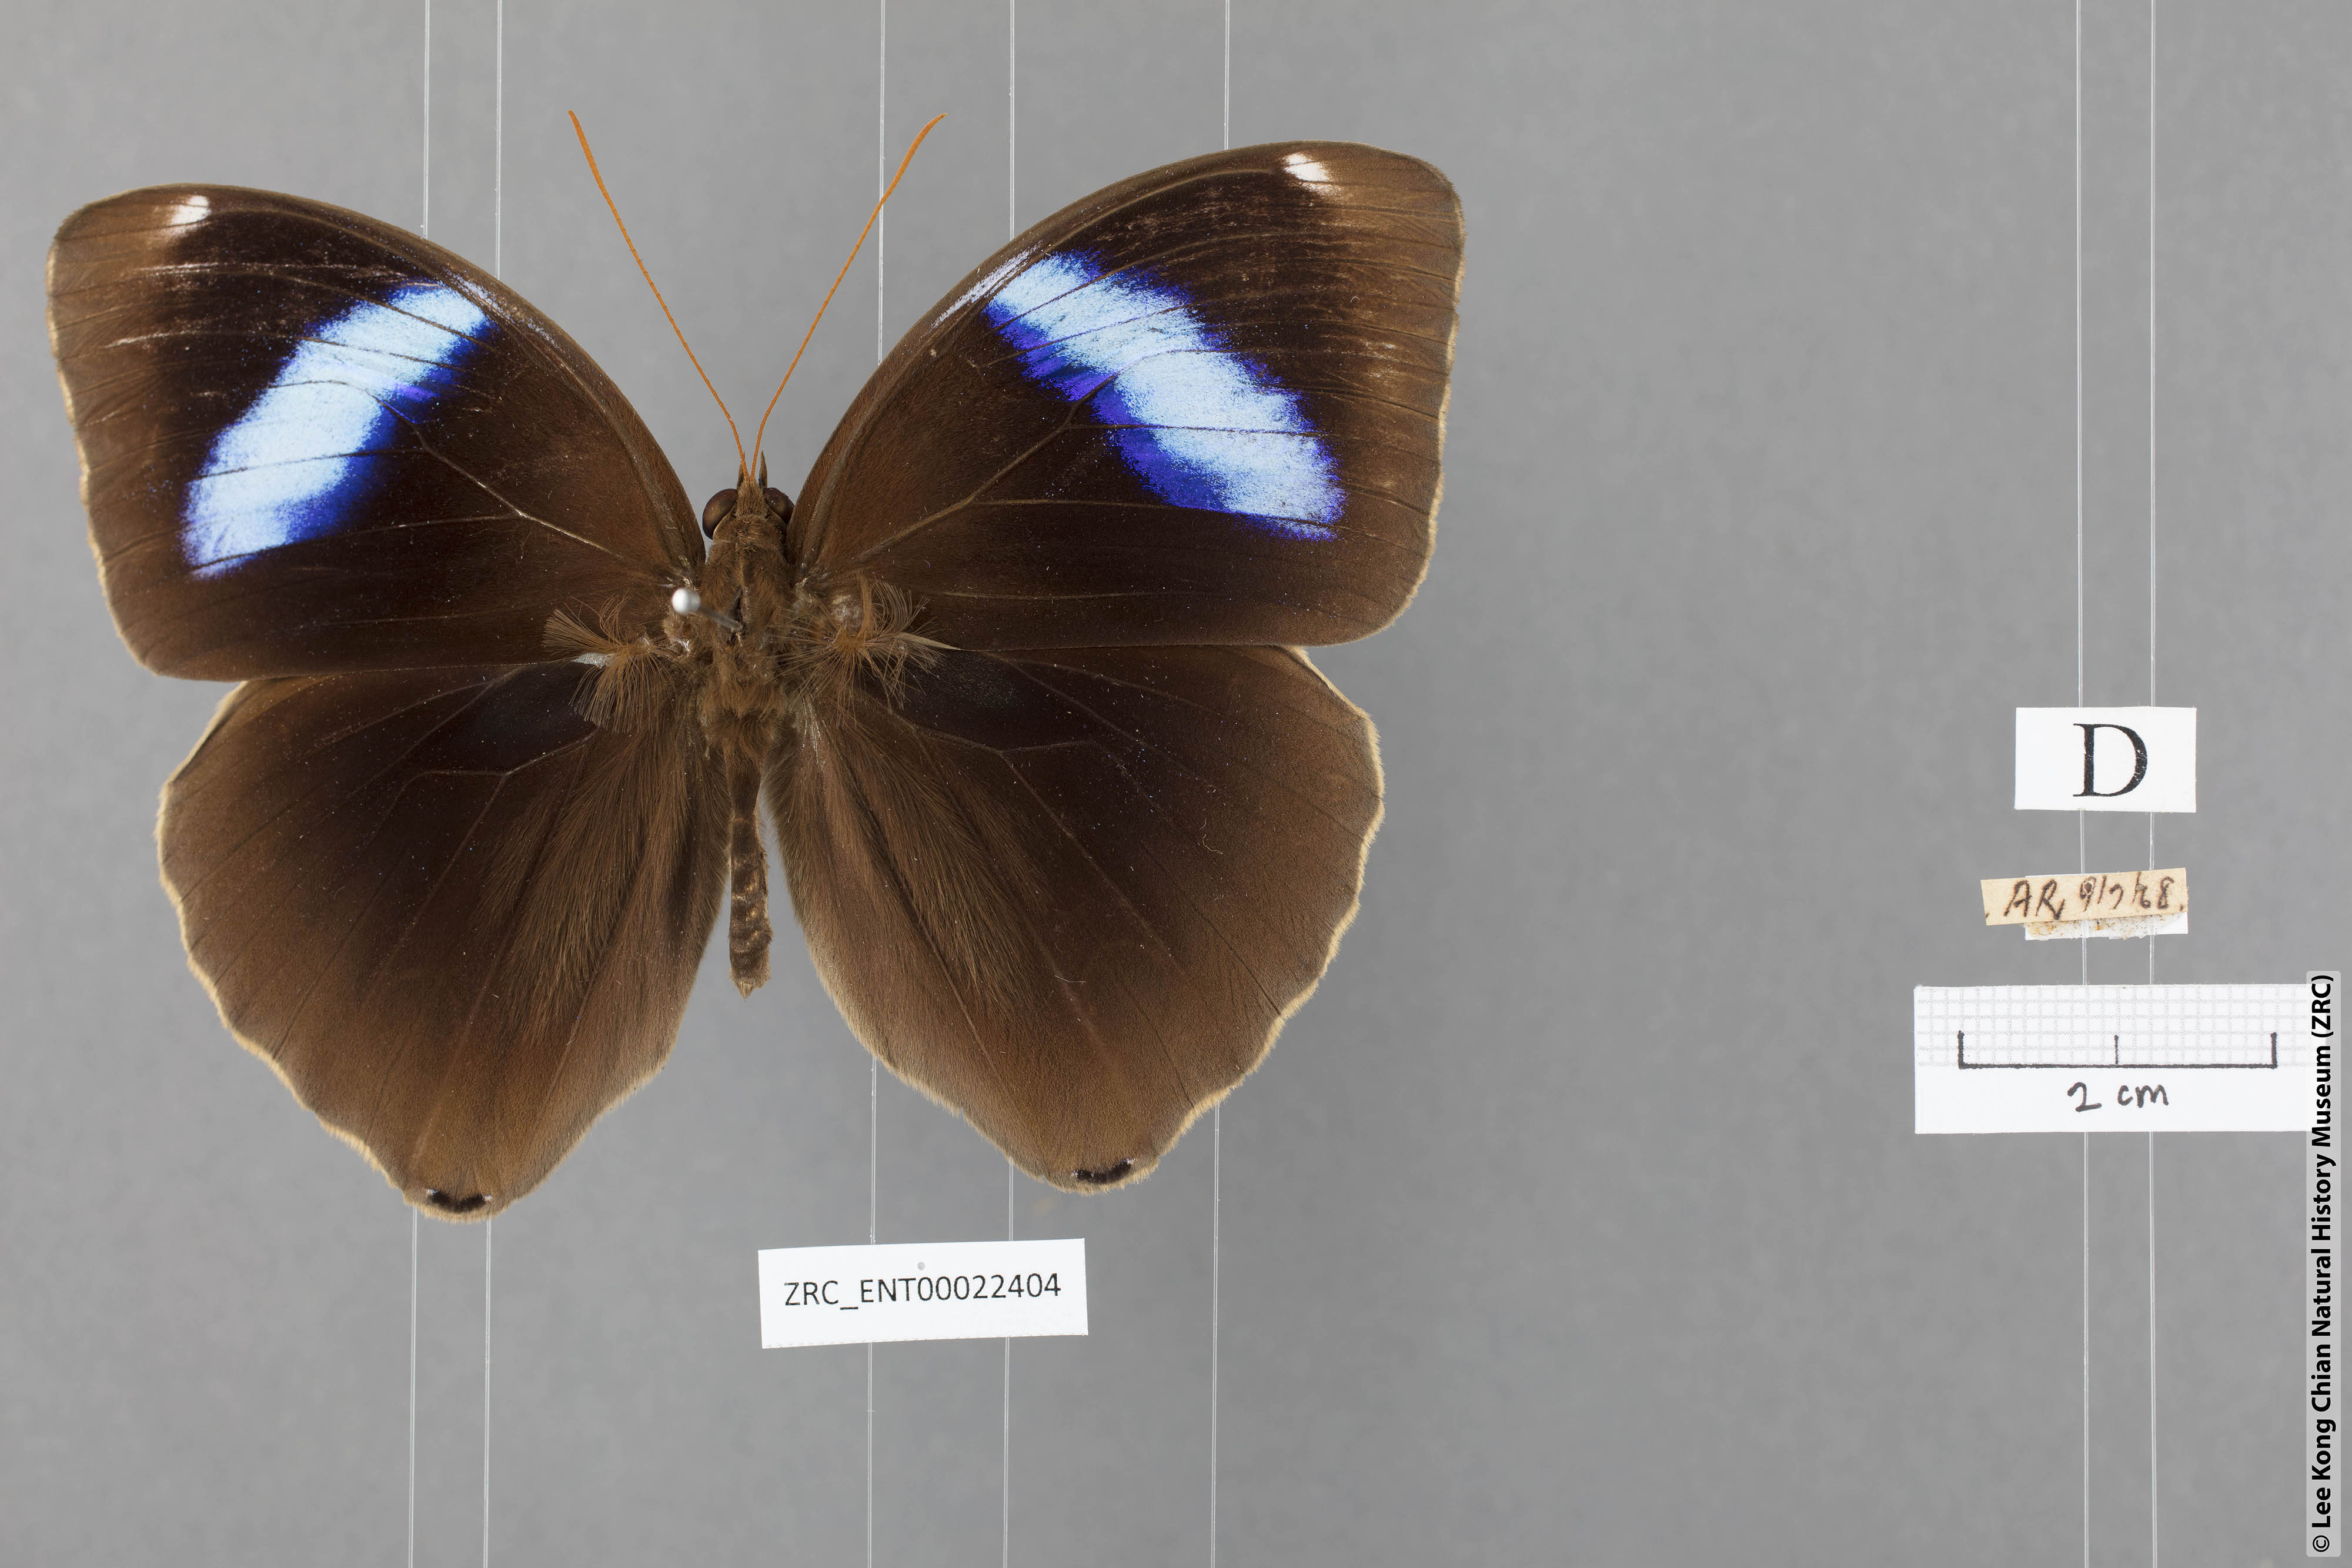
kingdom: Animalia
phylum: Arthropoda
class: Insecta
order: Lepidoptera
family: Nymphalidae
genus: Thaumantis
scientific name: Thaumantis odana
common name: Malayan jungle glory
